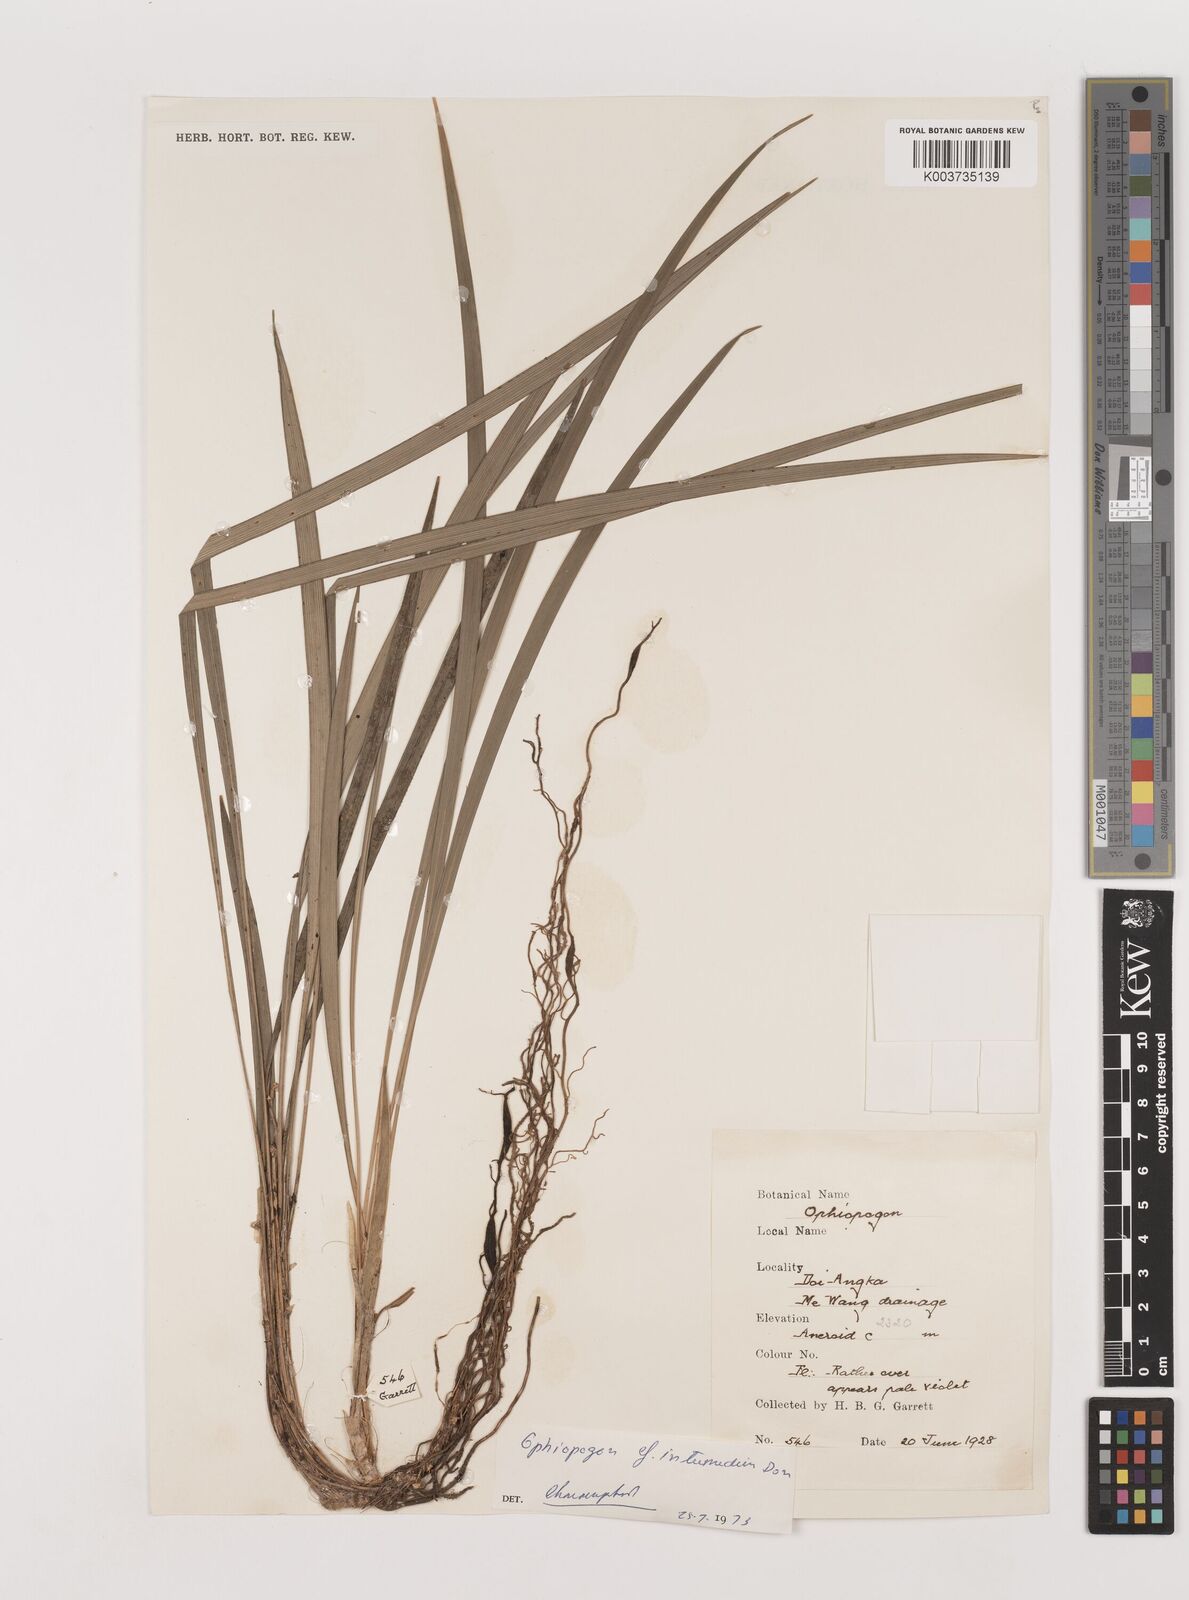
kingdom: Plantae
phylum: Tracheophyta
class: Liliopsida
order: Asparagales
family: Asparagaceae
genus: Ophiopogon
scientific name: Ophiopogon intermedius
